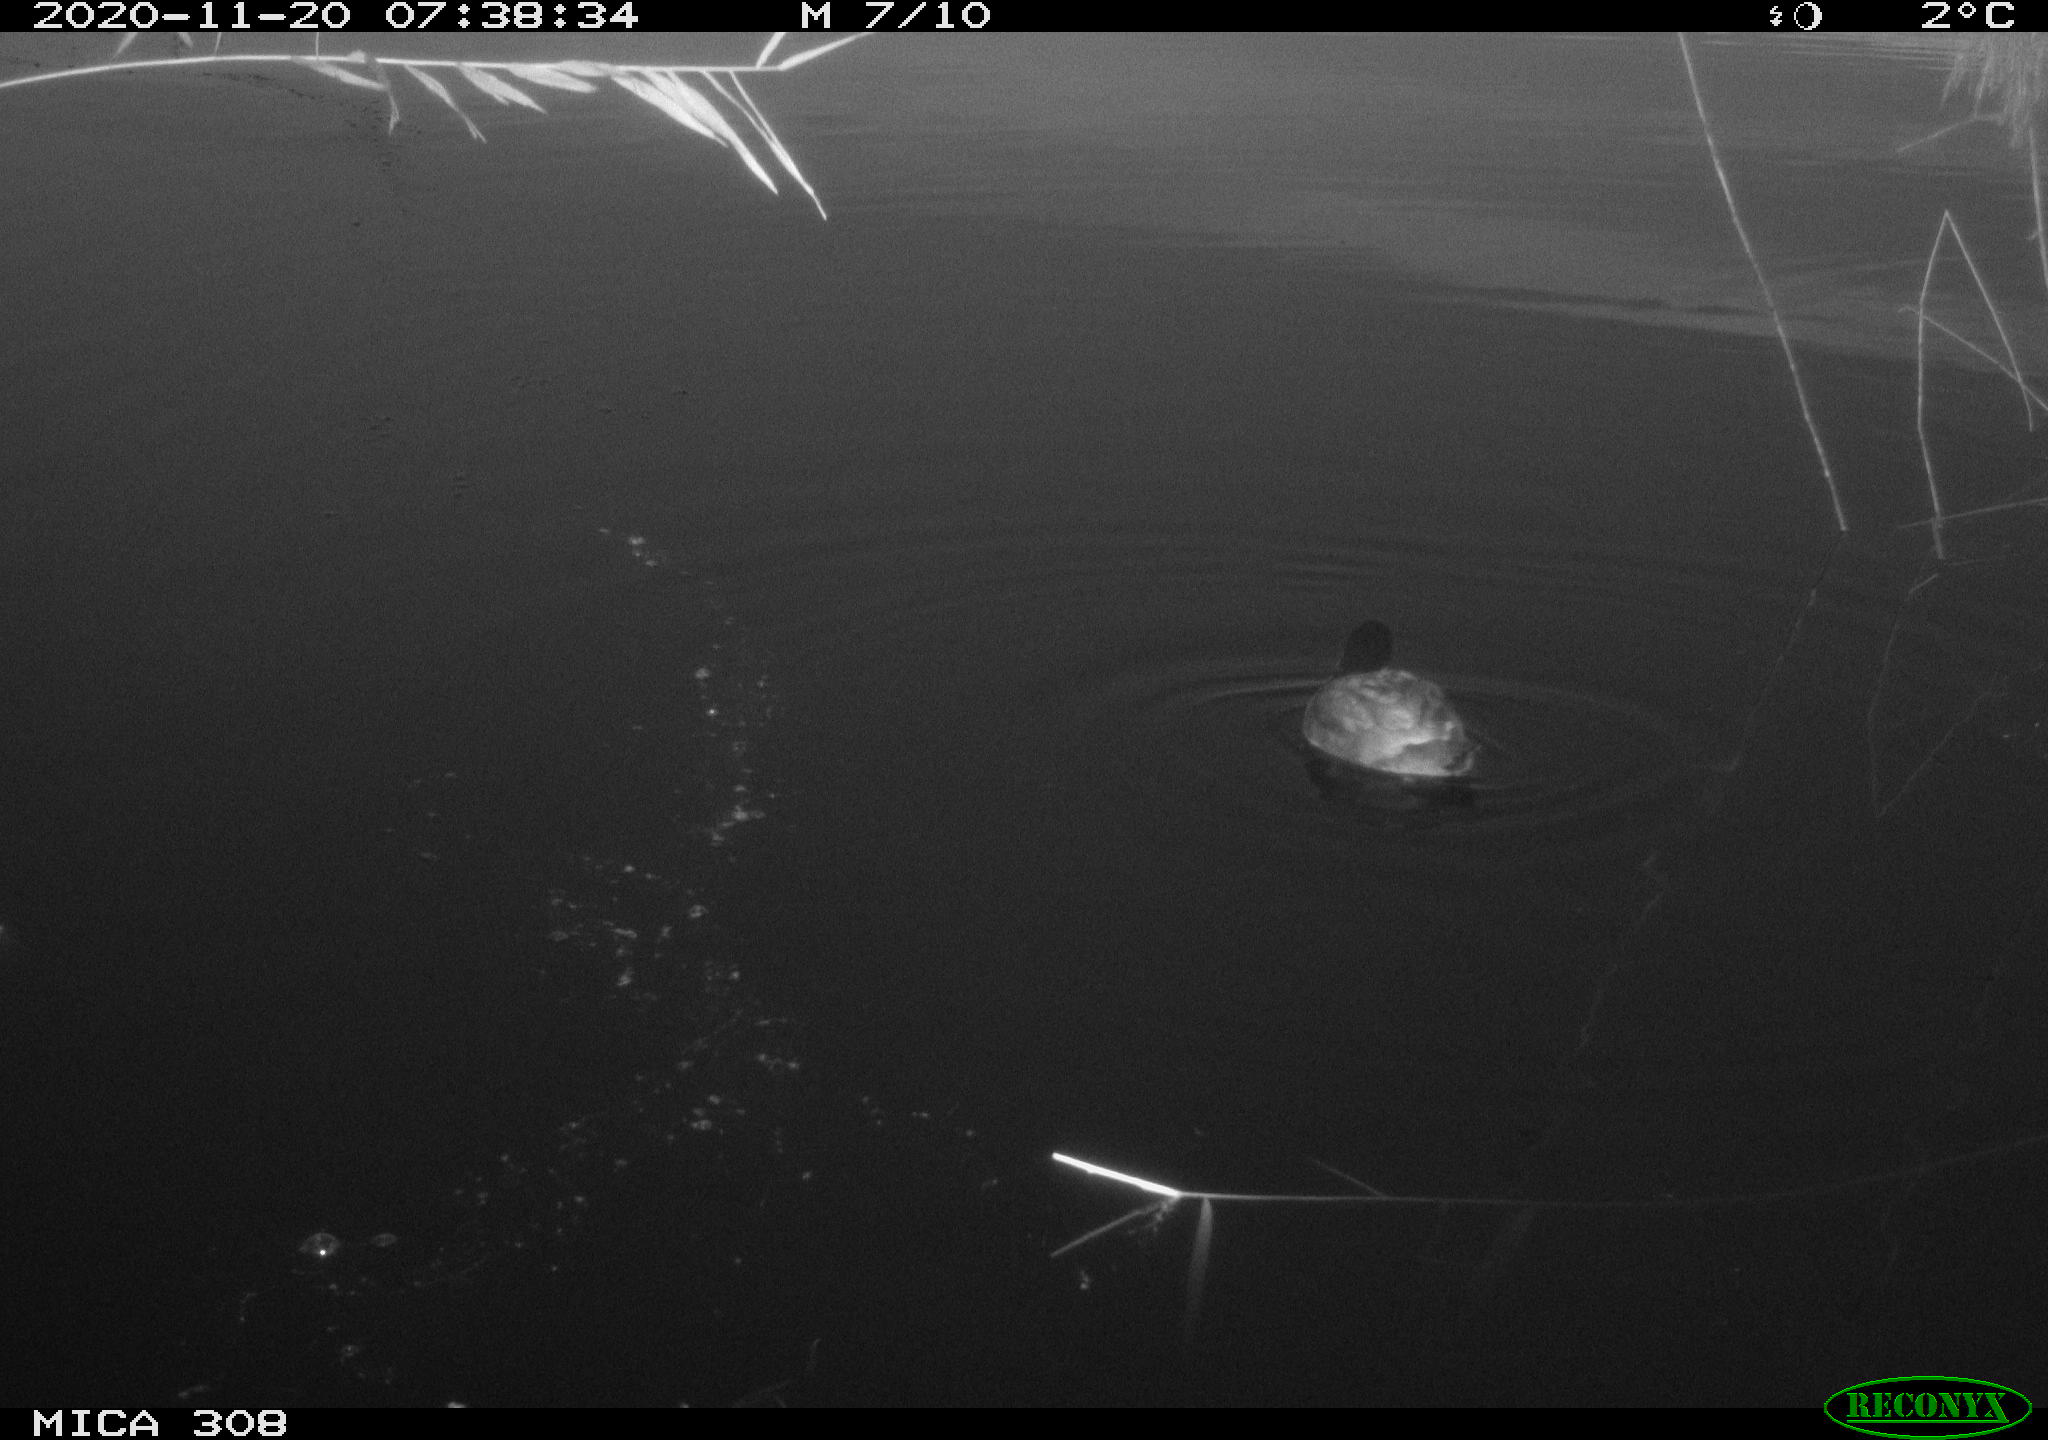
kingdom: Animalia
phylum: Chordata
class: Aves
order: Gruiformes
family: Rallidae
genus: Fulica
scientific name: Fulica atra
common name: Eurasian coot
